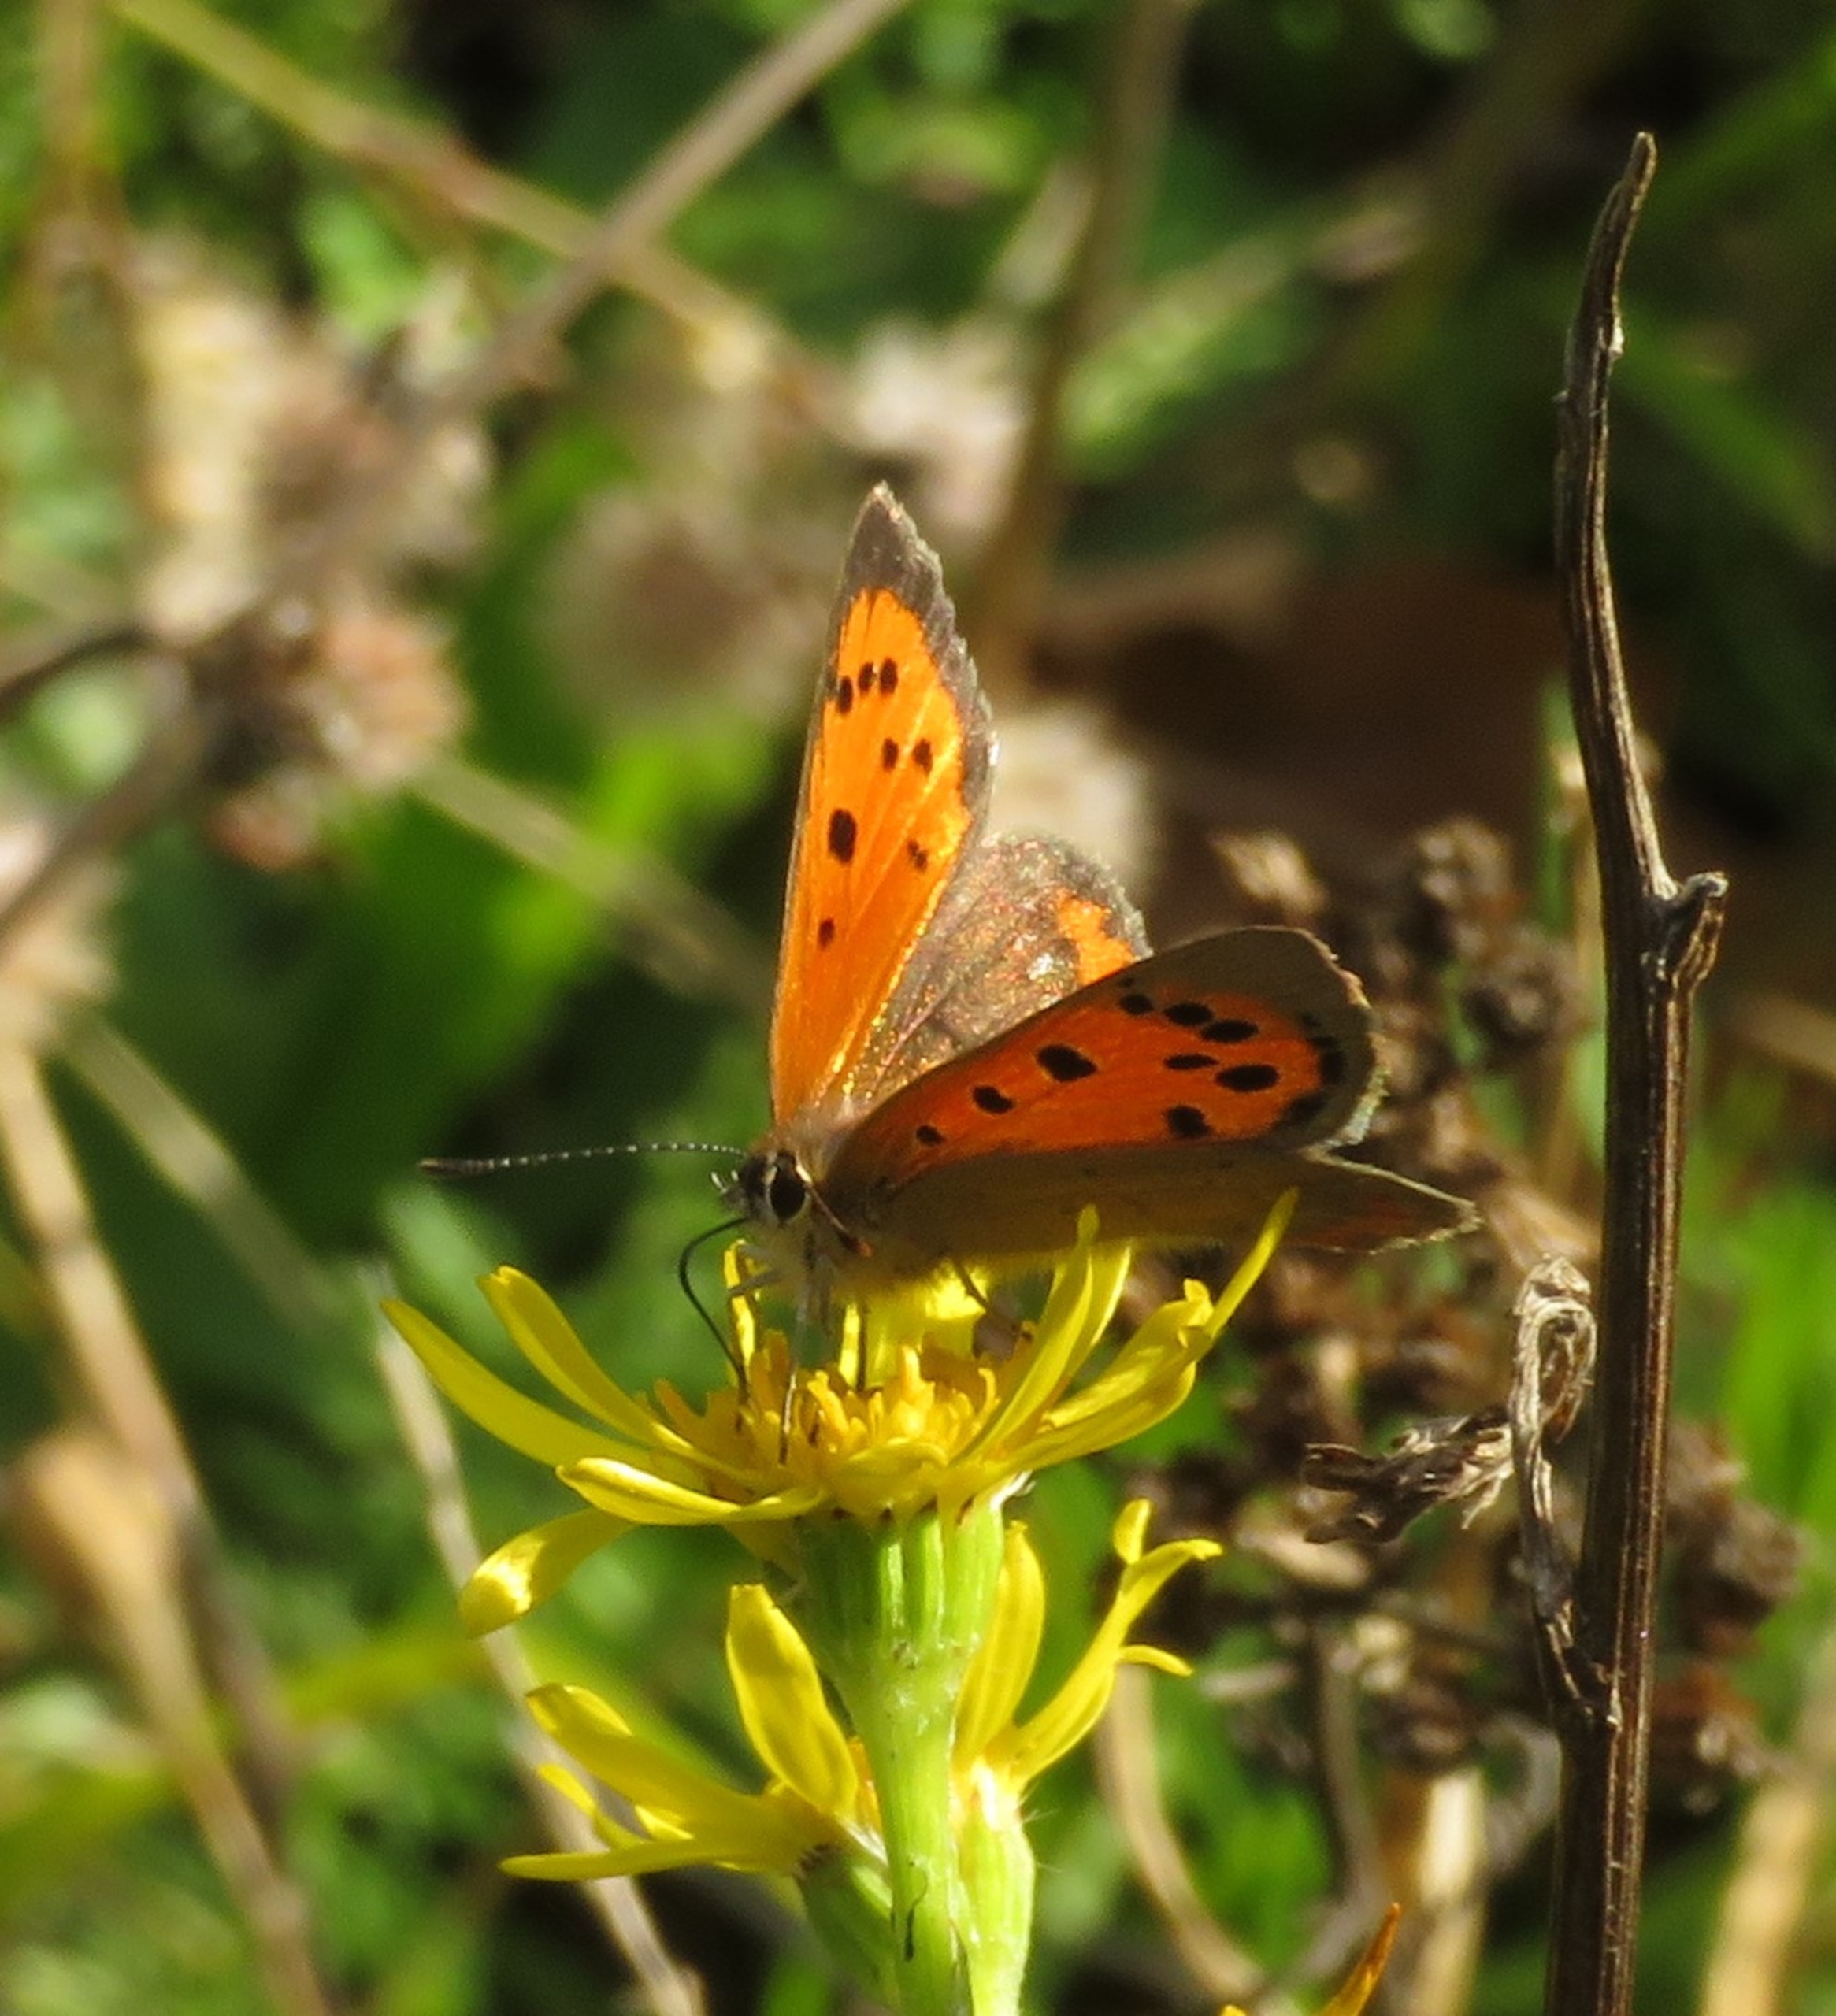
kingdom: Animalia
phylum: Arthropoda
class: Insecta
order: Lepidoptera
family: Lycaenidae
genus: Lycaena
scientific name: Lycaena phlaeas
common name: Lille ildfugl
